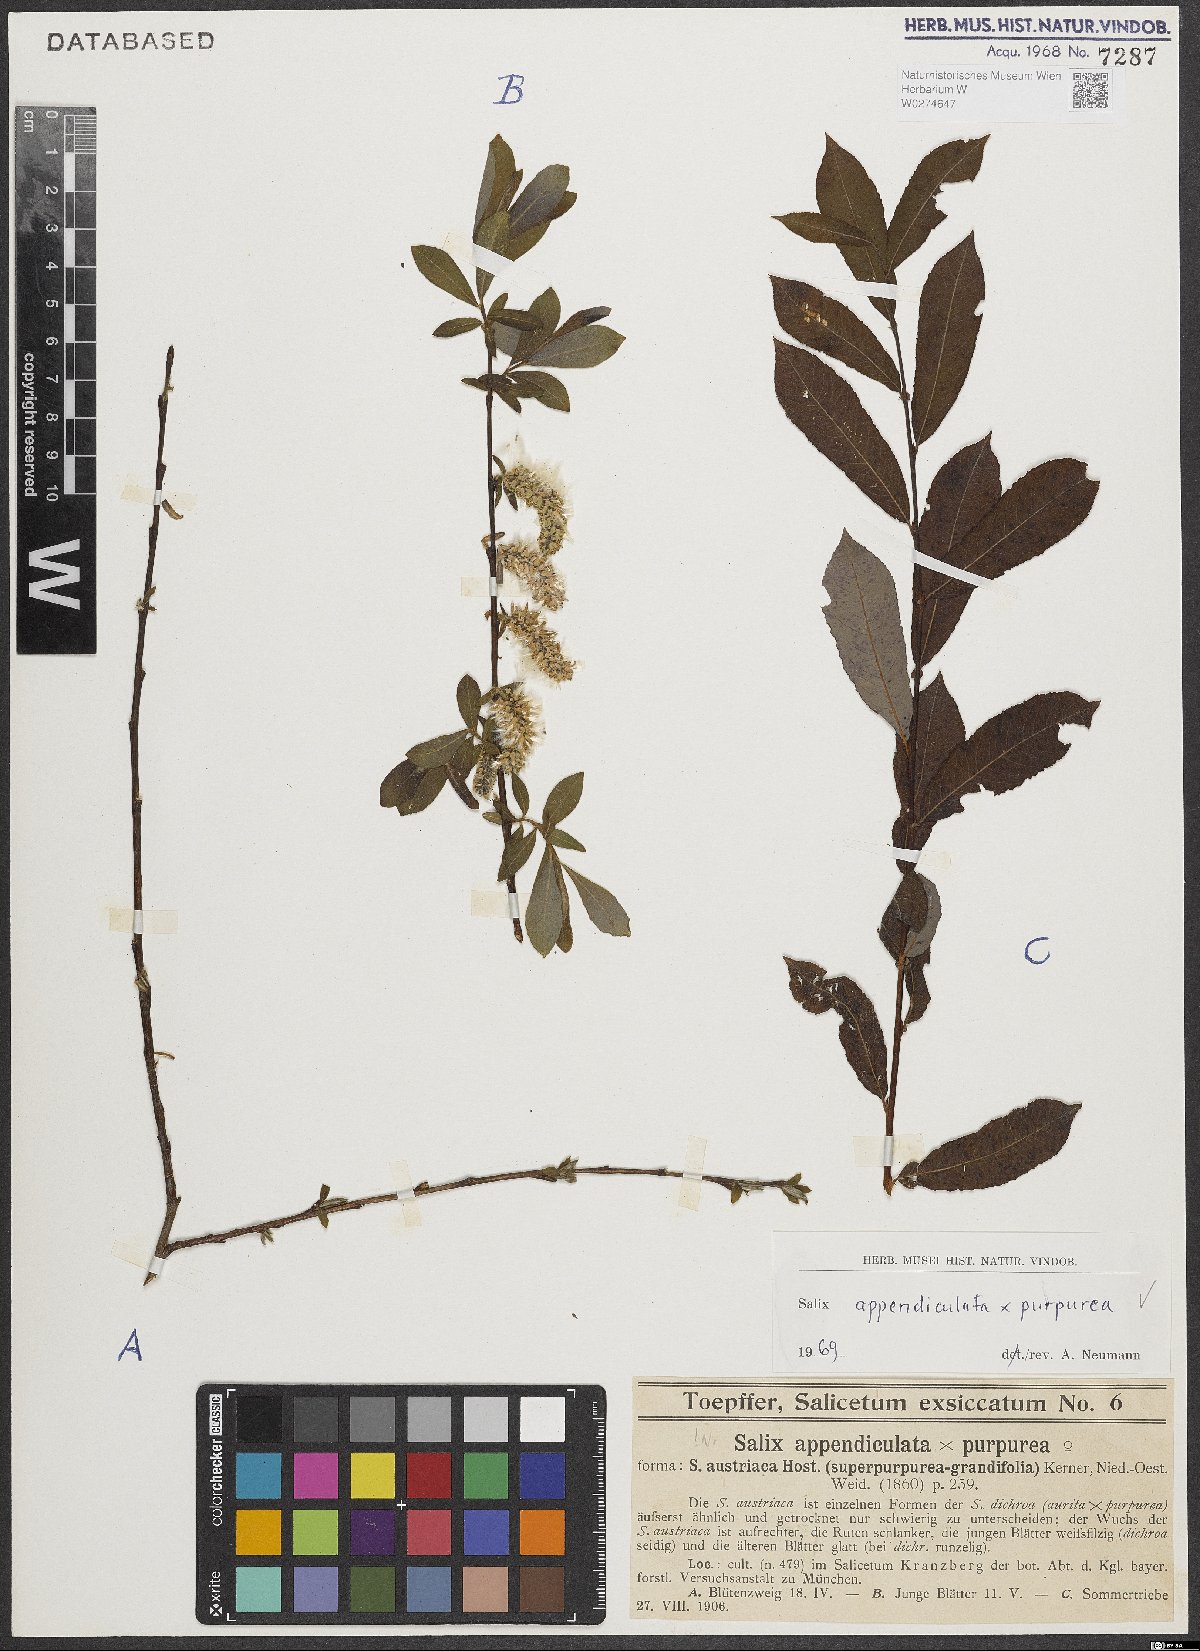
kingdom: Plantae
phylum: Tracheophyta
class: Magnoliopsida
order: Malpighiales
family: Salicaceae
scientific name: Salicaceae
